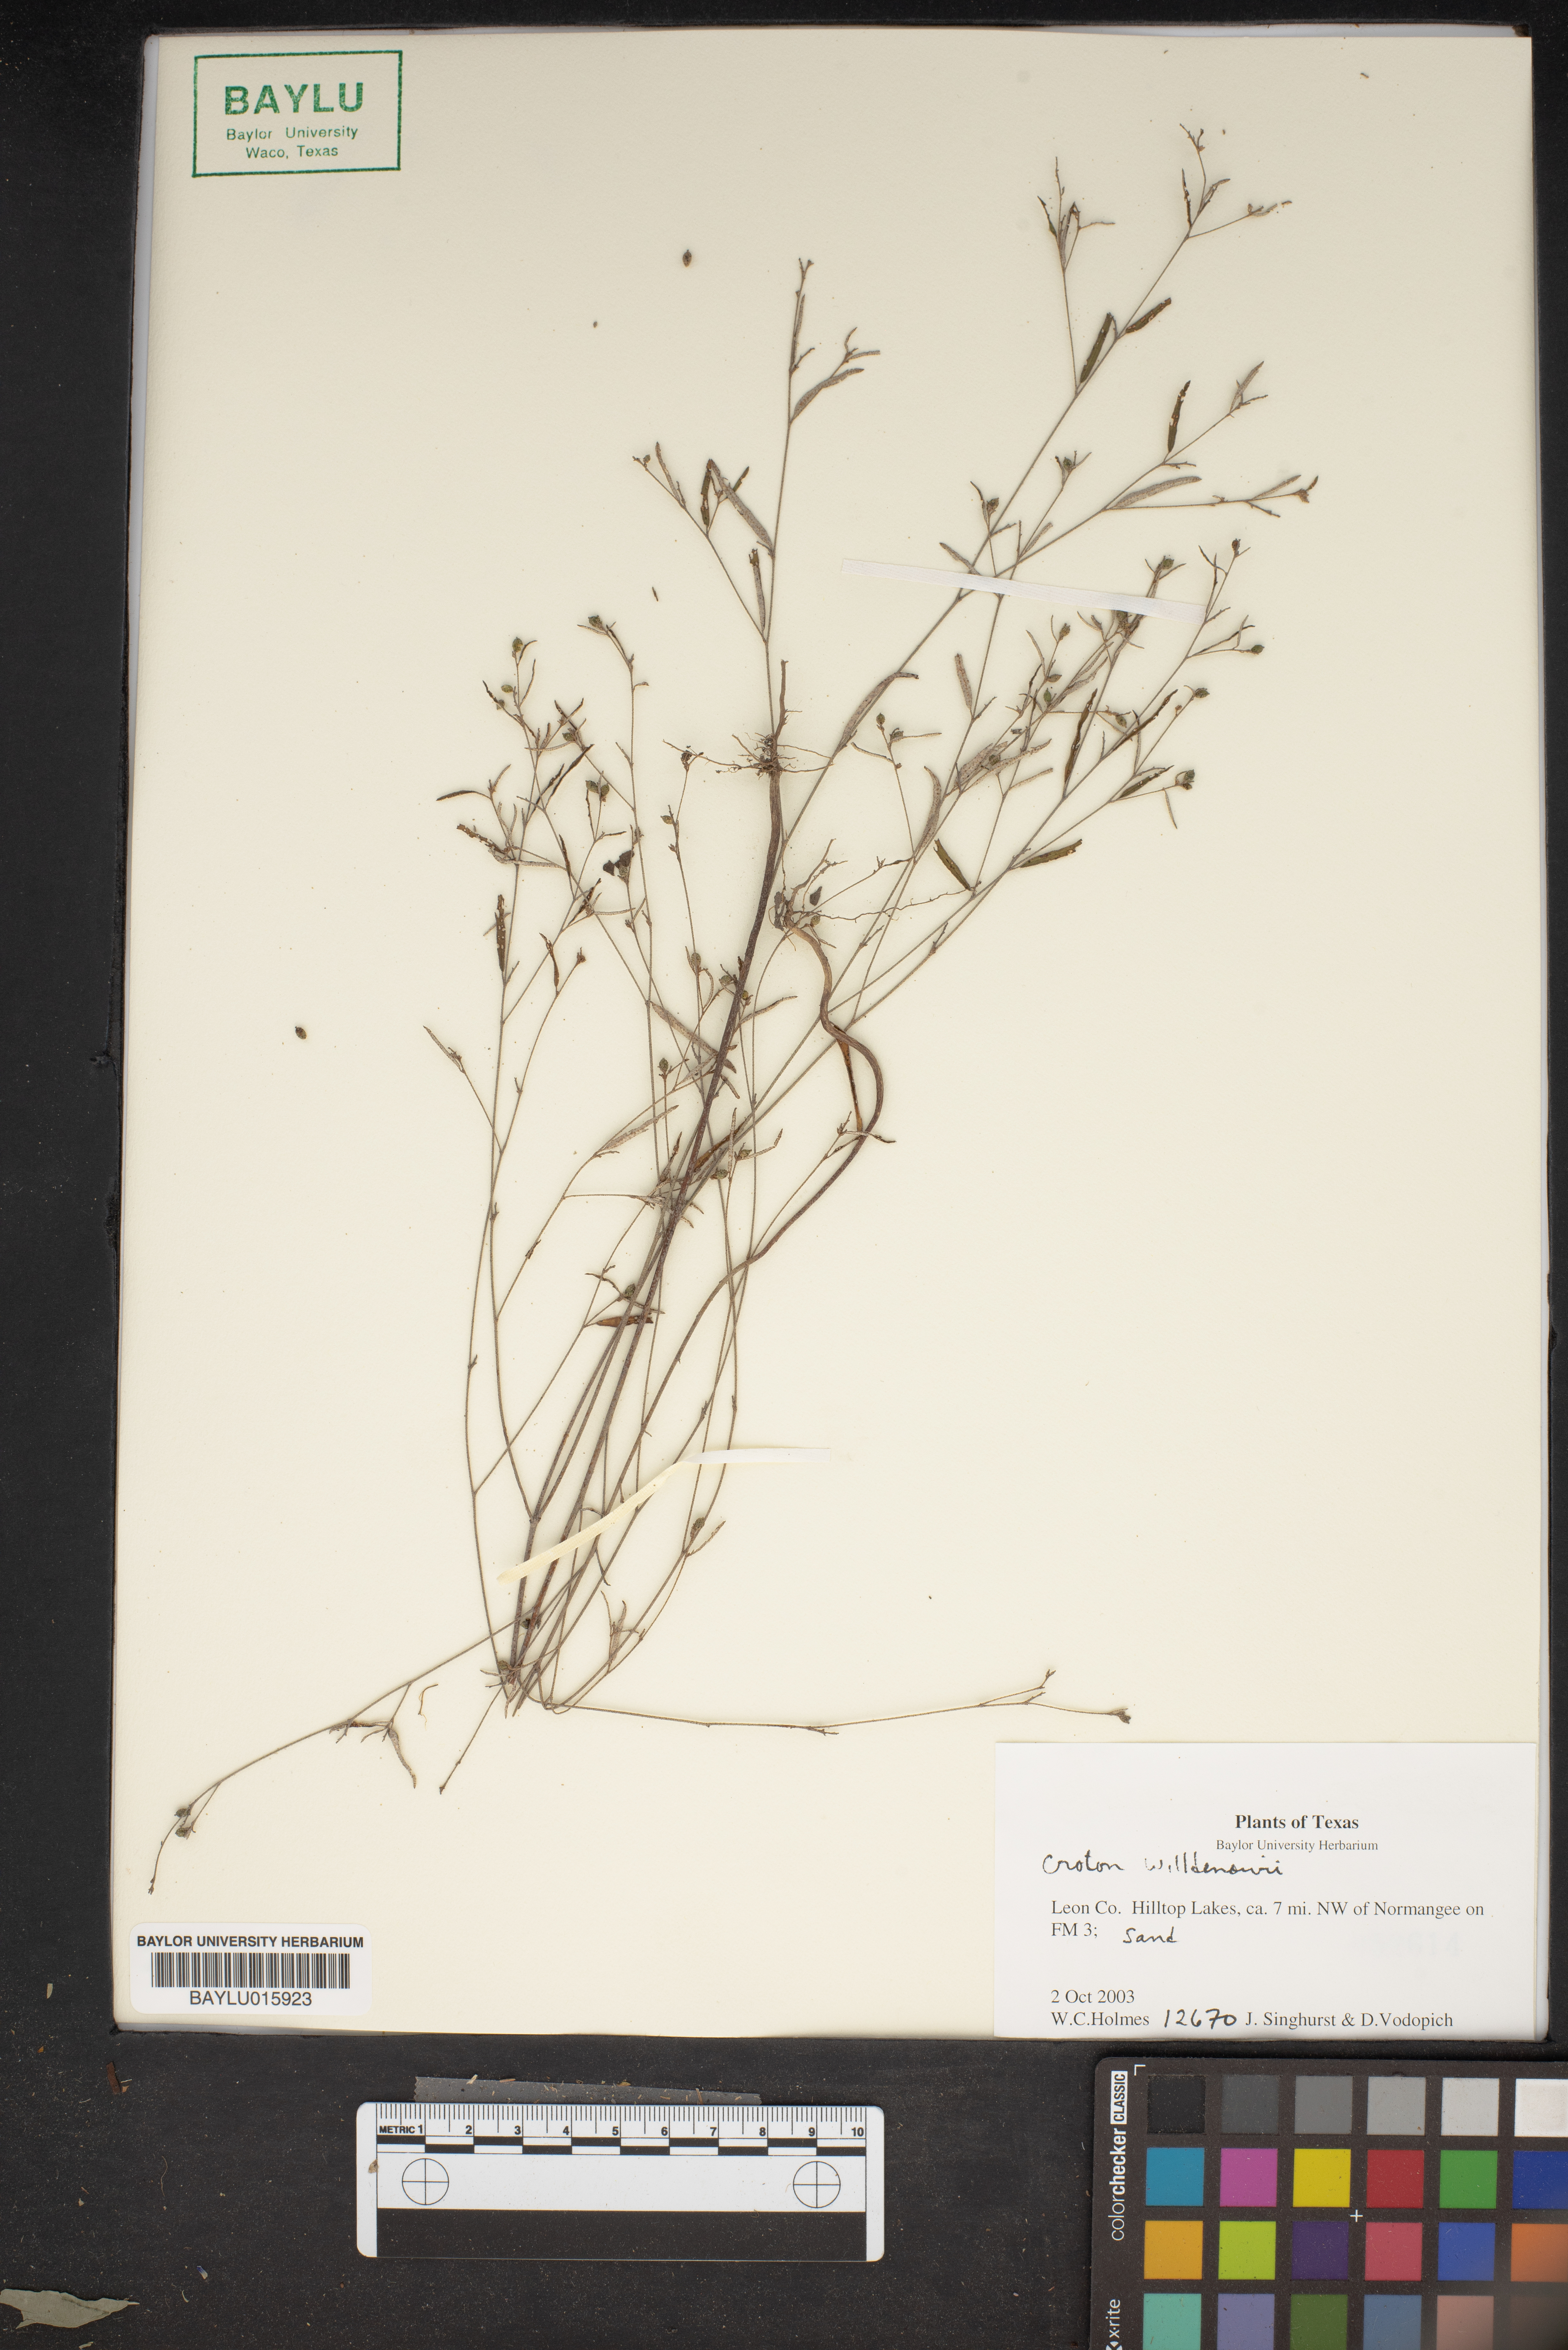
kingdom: Plantae
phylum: Tracheophyta
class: Magnoliopsida
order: Malpighiales
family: Euphorbiaceae
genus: Croton
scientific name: Croton michauxii
